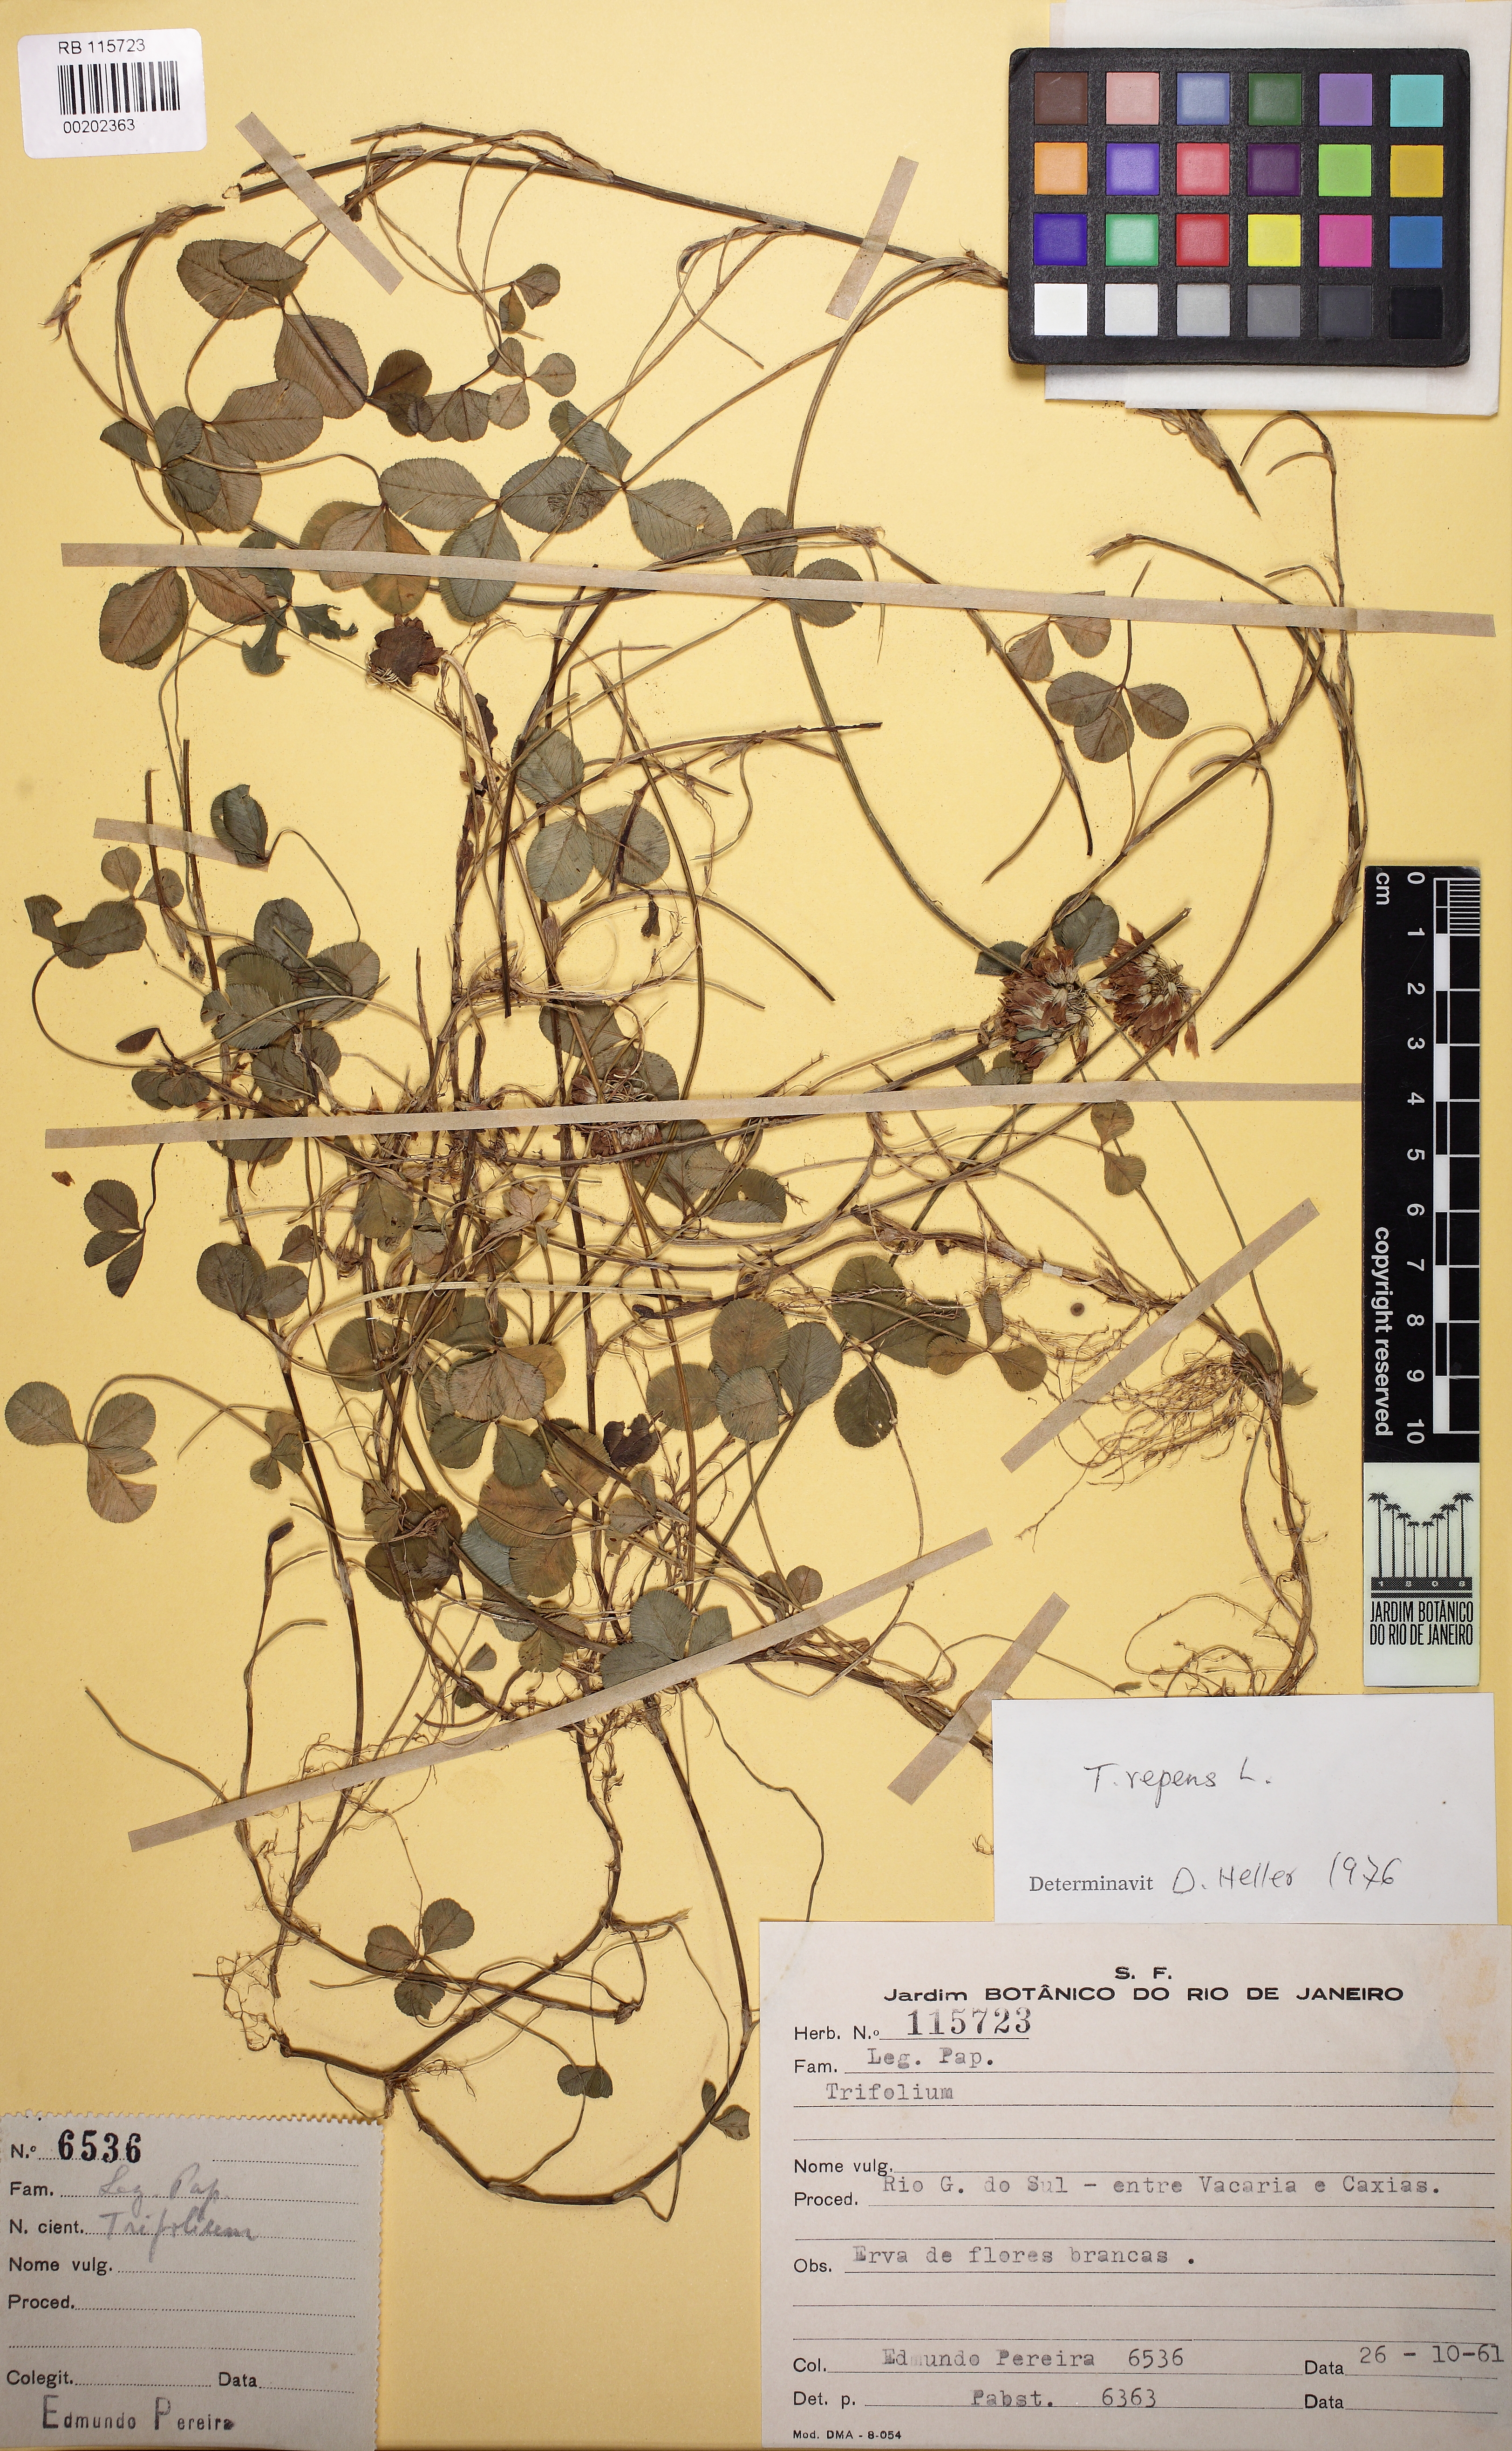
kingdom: Plantae
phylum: Tracheophyta
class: Magnoliopsida
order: Fabales
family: Fabaceae
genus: Trifolium
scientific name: Trifolium repens
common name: White clover
